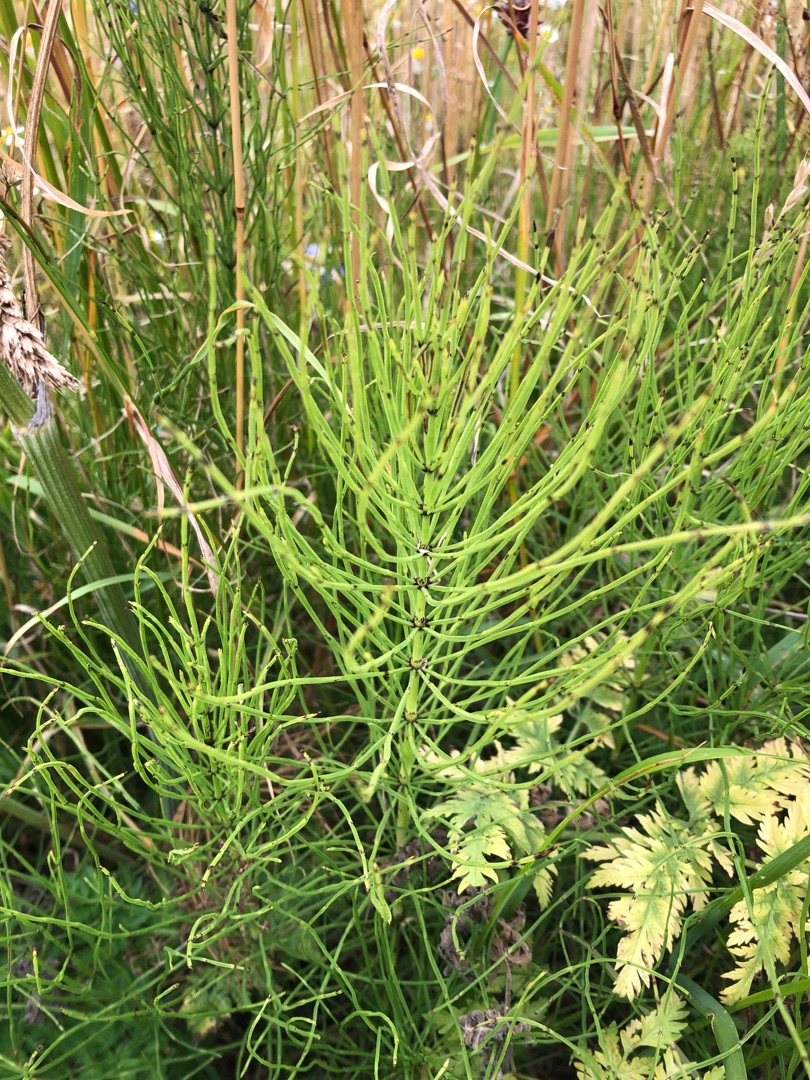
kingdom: Plantae
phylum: Tracheophyta
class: Polypodiopsida
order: Equisetales
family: Equisetaceae
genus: Equisetum
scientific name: Equisetum arvense
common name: Ager-padderok
